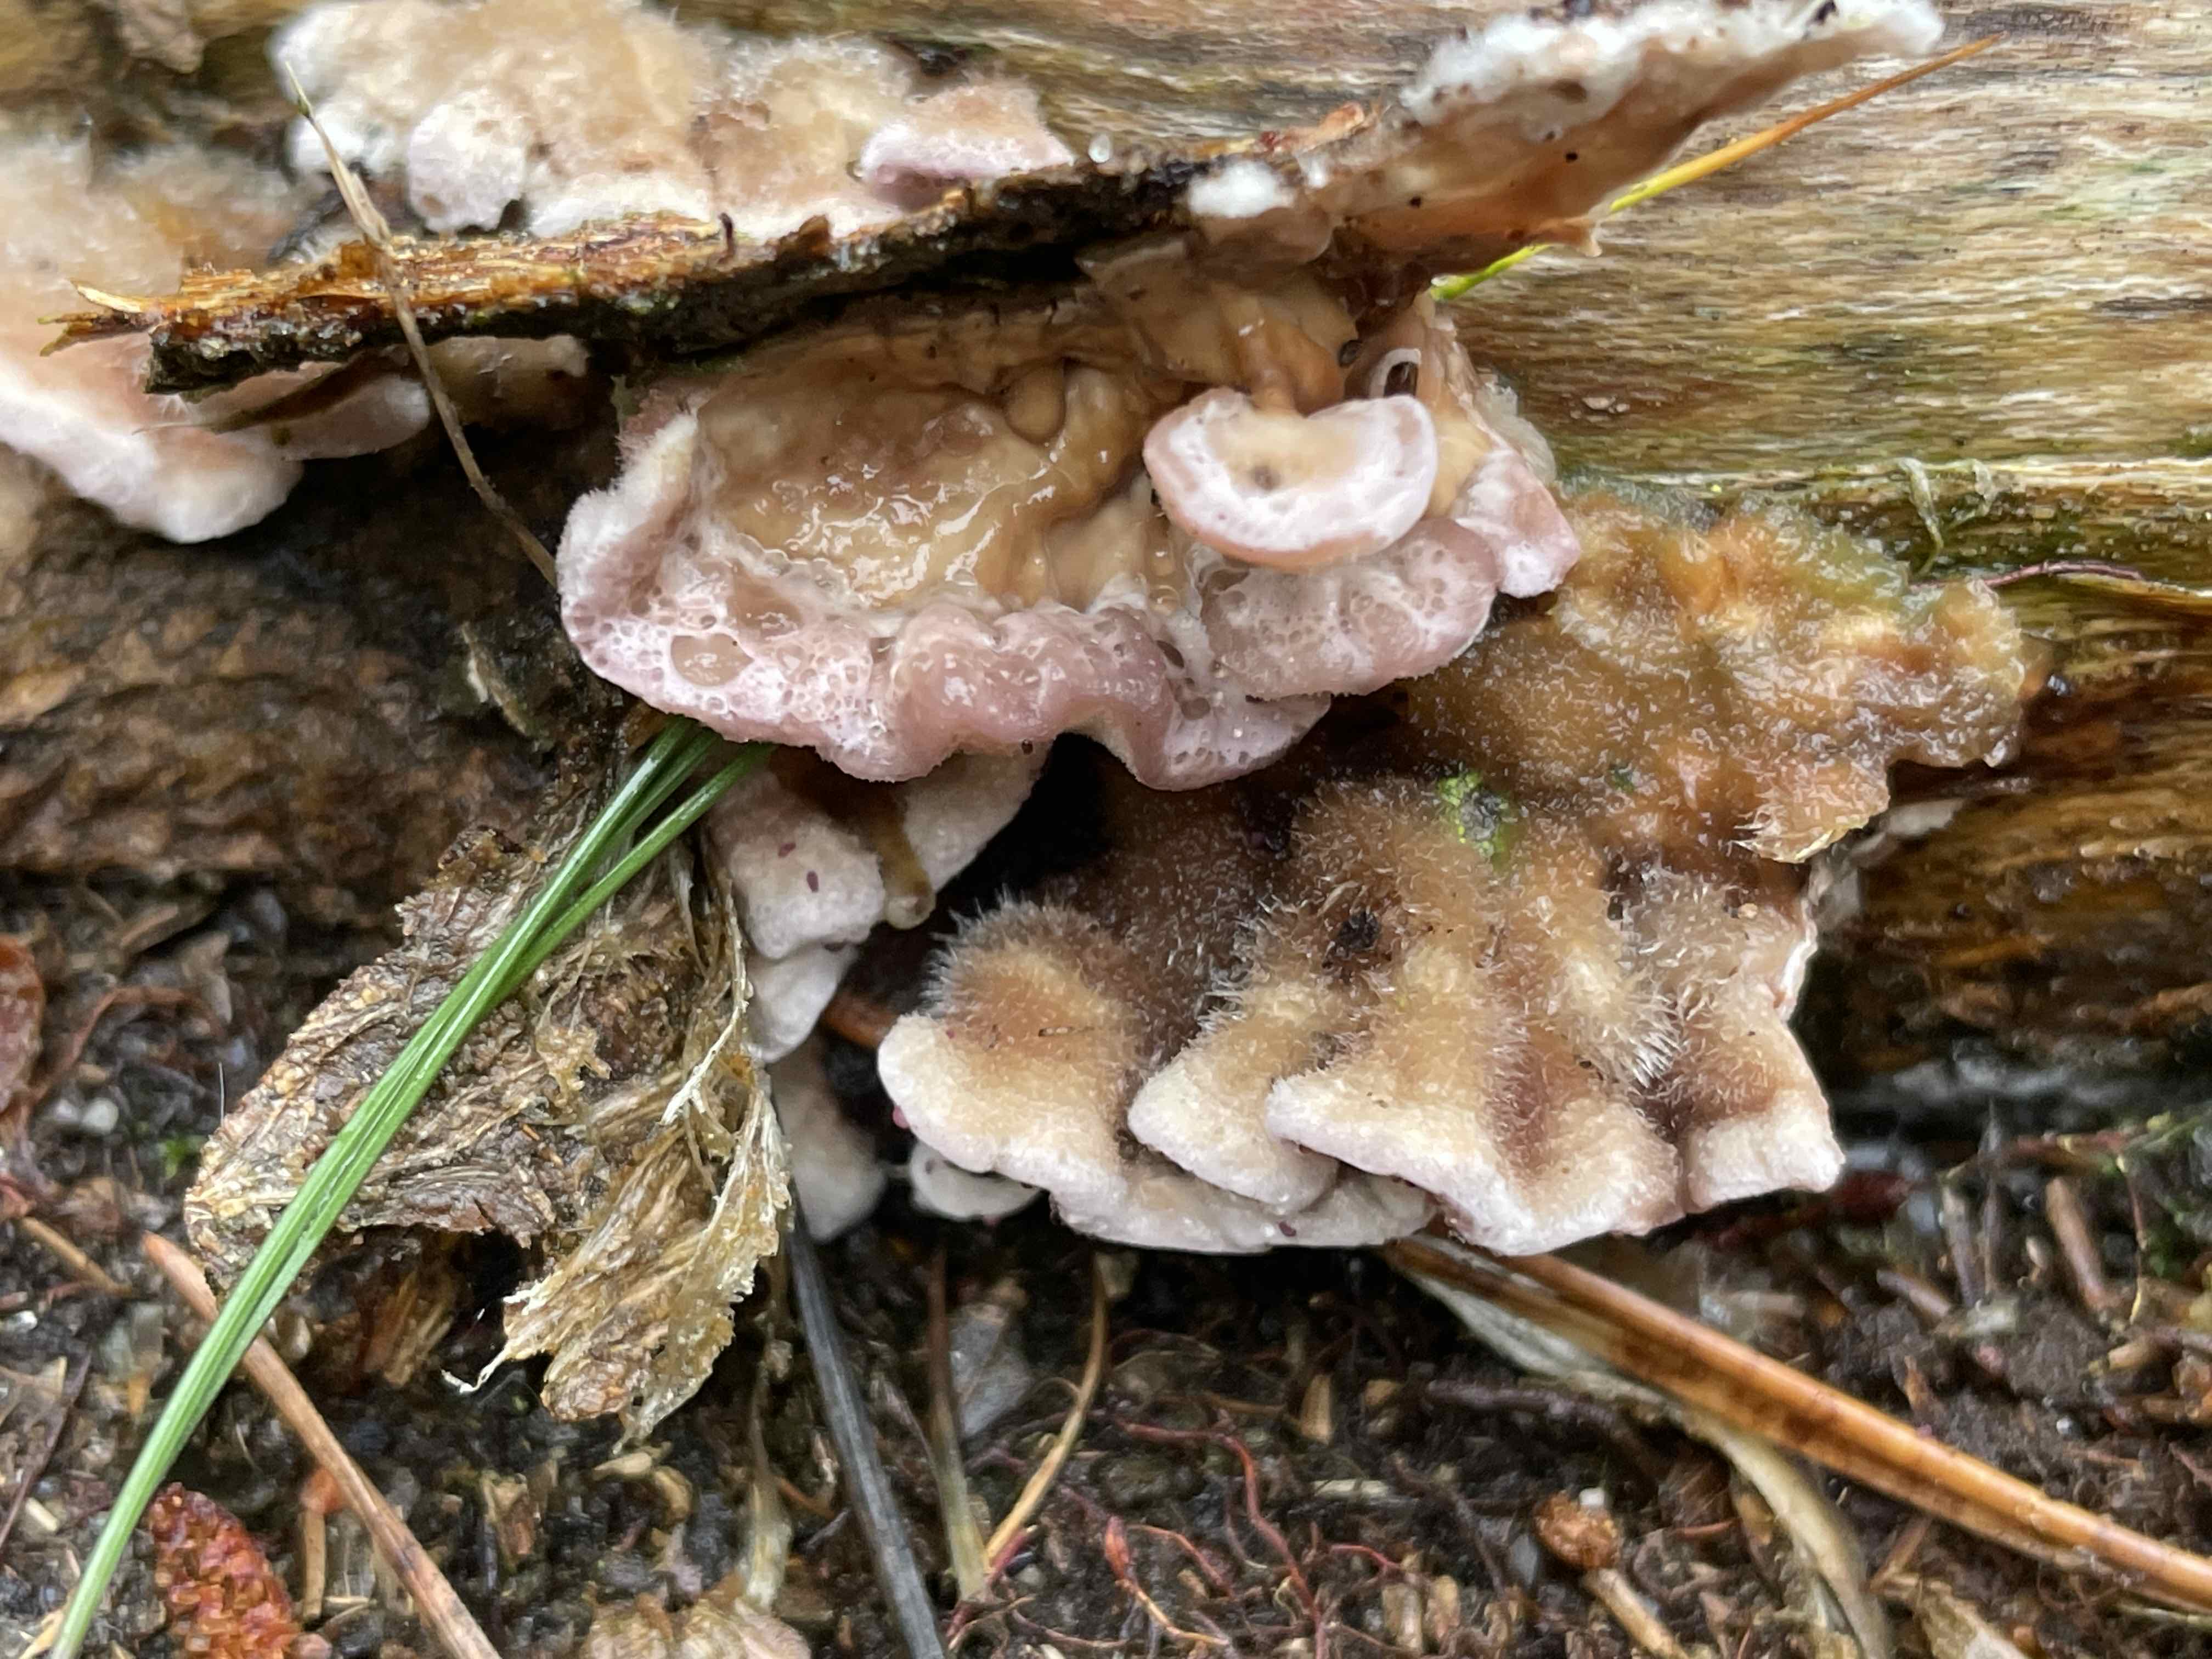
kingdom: Fungi
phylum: Basidiomycota
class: Agaricomycetes
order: Agaricales
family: Cyphellaceae
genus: Chondrostereum
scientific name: Chondrostereum purpureum
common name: purpurlædersvamp
